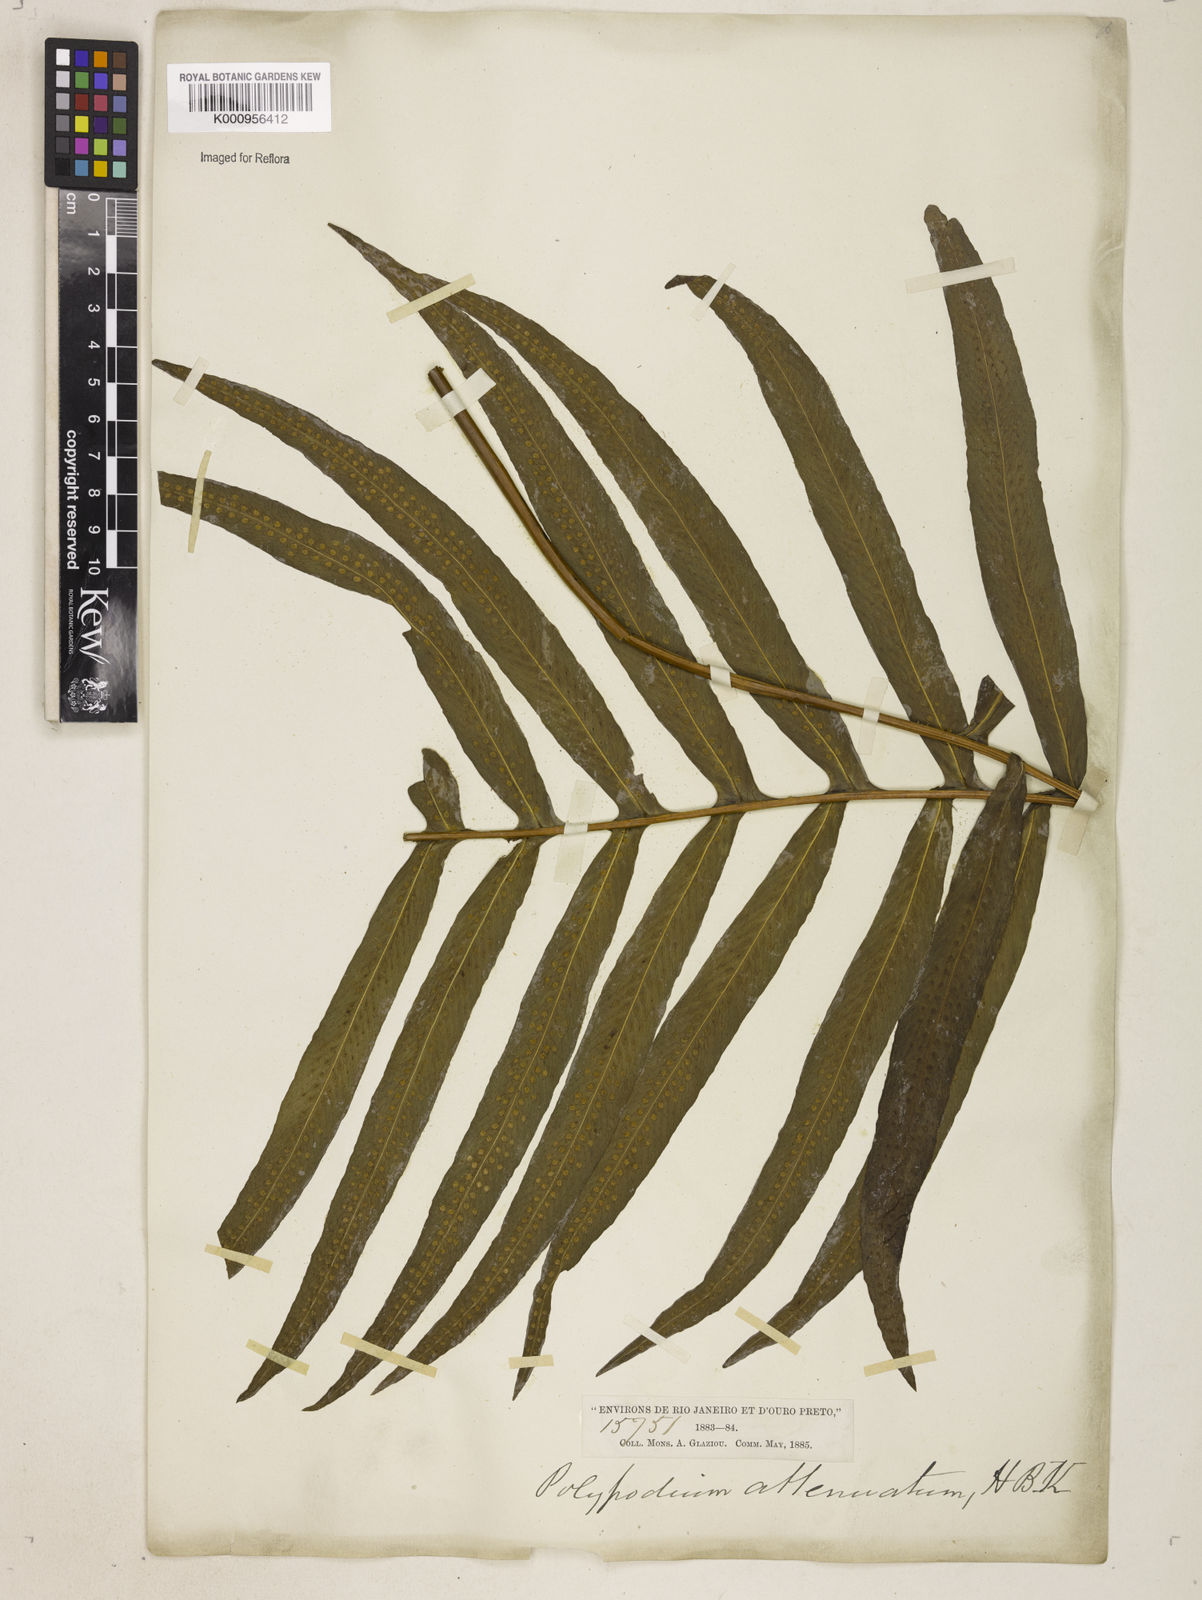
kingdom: Plantae
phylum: Tracheophyta
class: Polypodiopsida
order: Polypodiales
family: Polypodiaceae
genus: Serpocaulon
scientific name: Serpocaulon triseriale
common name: Angle-vein fern
